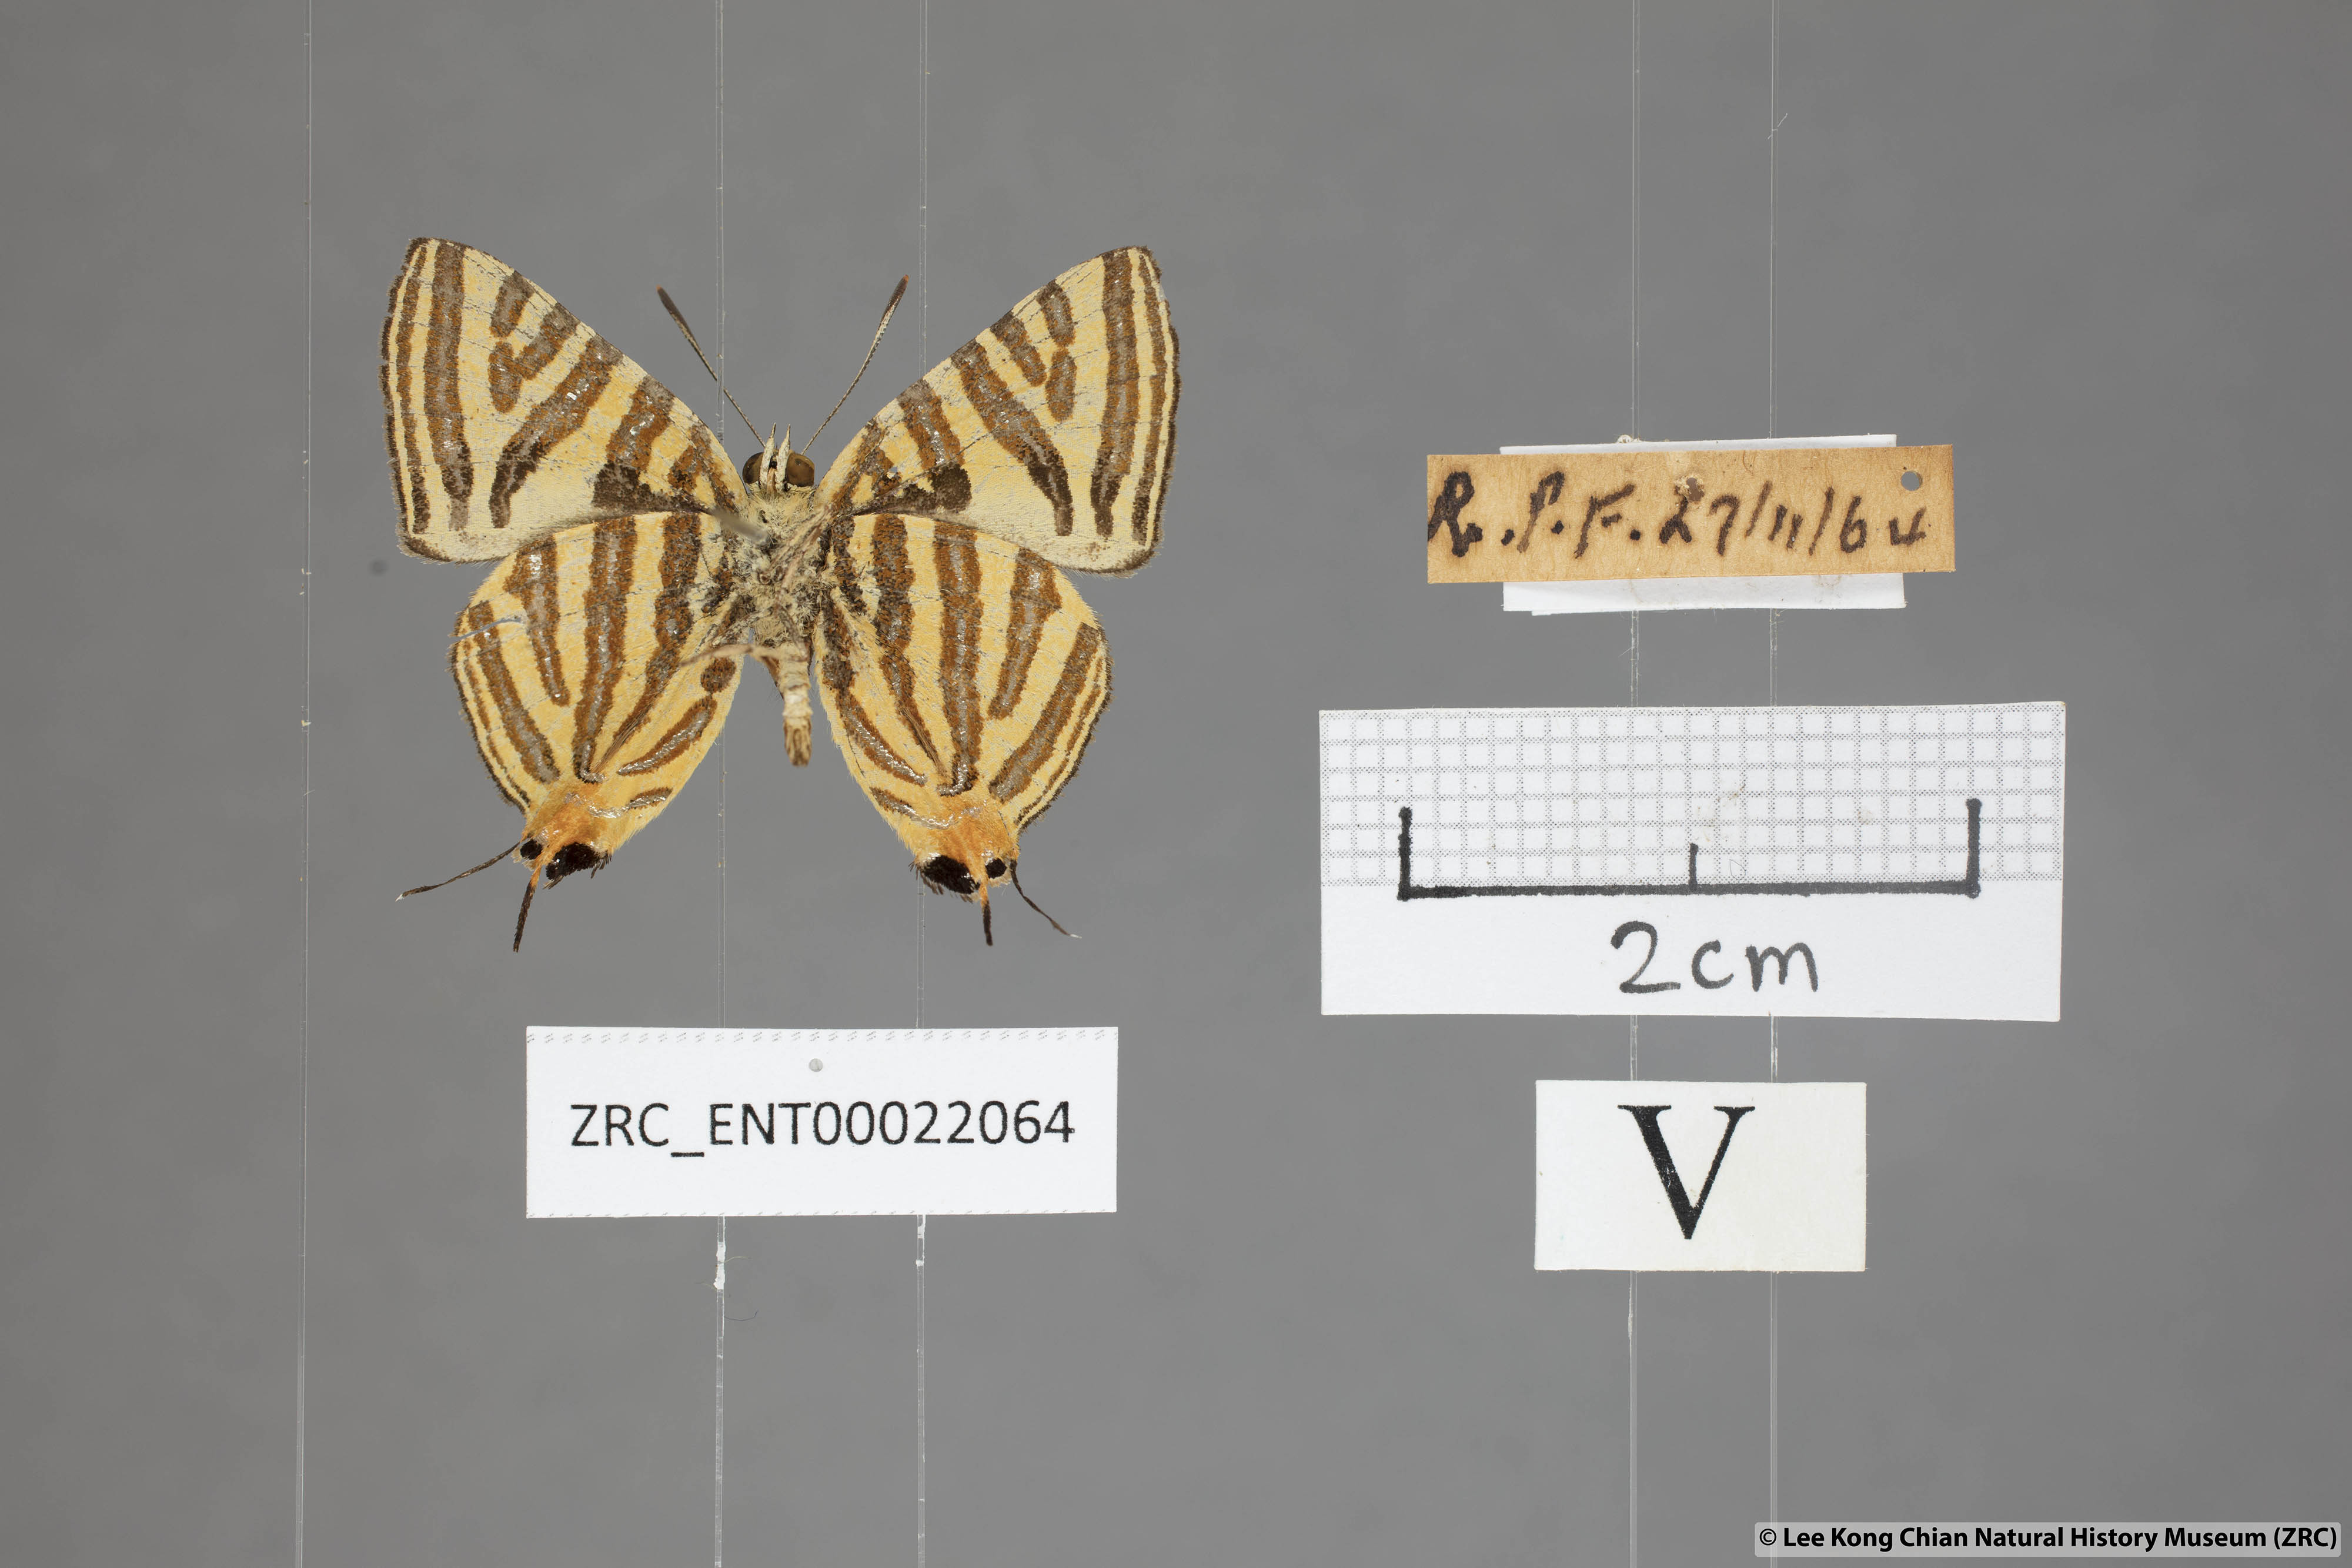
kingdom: Animalia
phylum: Arthropoda
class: Insecta
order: Lepidoptera
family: Lycaenidae
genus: Spindasis
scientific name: Spindasis lohita
